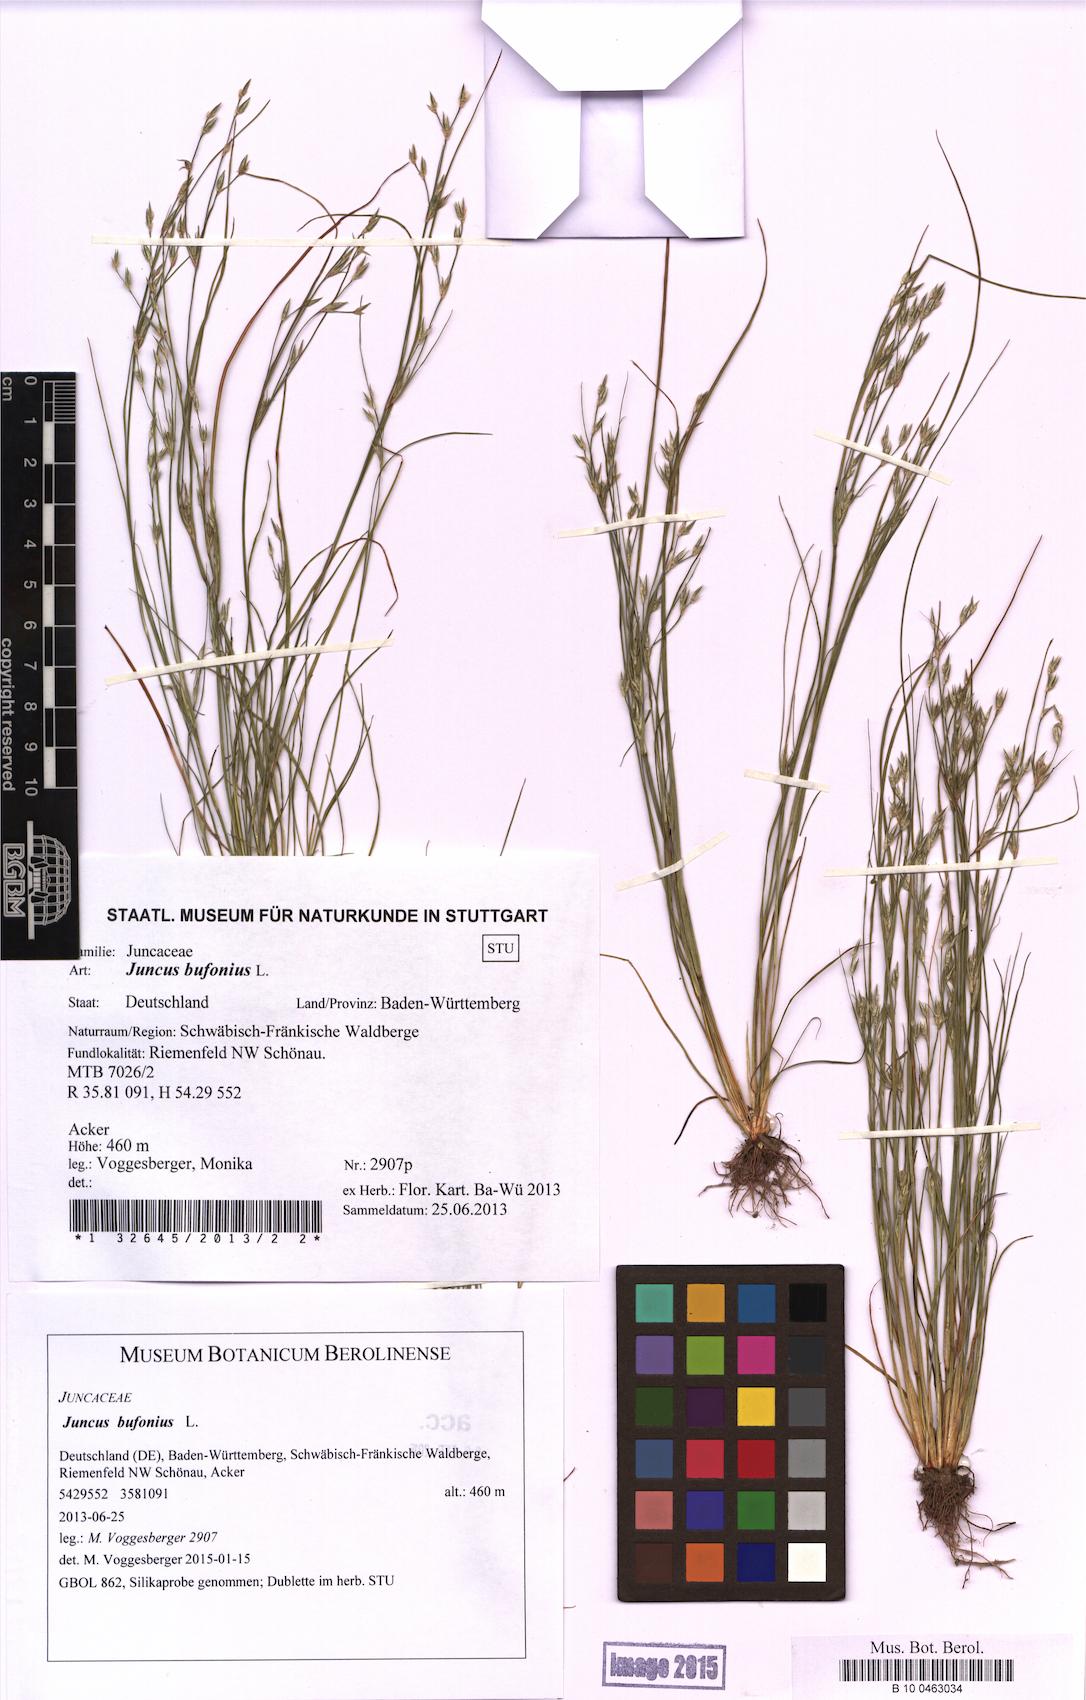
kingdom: Plantae
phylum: Tracheophyta
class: Liliopsida
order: Poales
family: Juncaceae
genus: Juncus
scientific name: Juncus bufonius
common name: Toad rush
